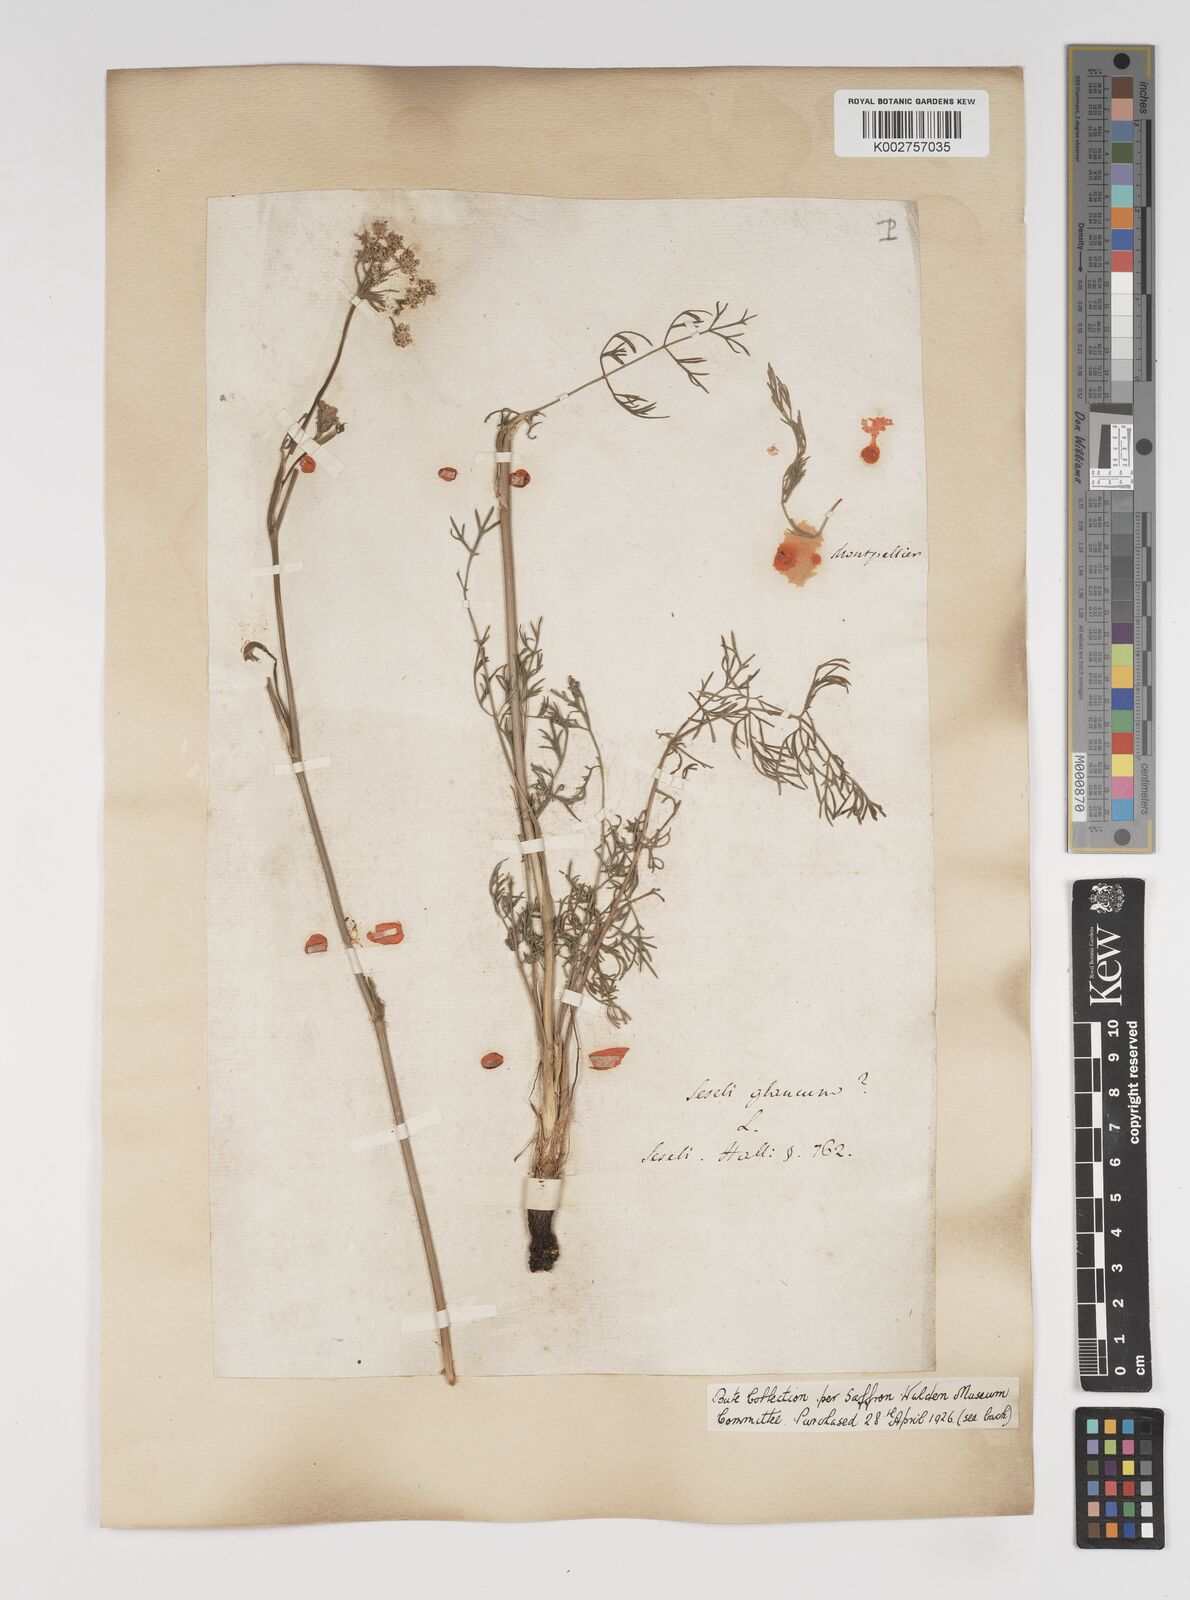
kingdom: Plantae
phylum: Tracheophyta
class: Magnoliopsida
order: Apiales
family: Apiaceae
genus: Seseli
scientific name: Seseli montanum
